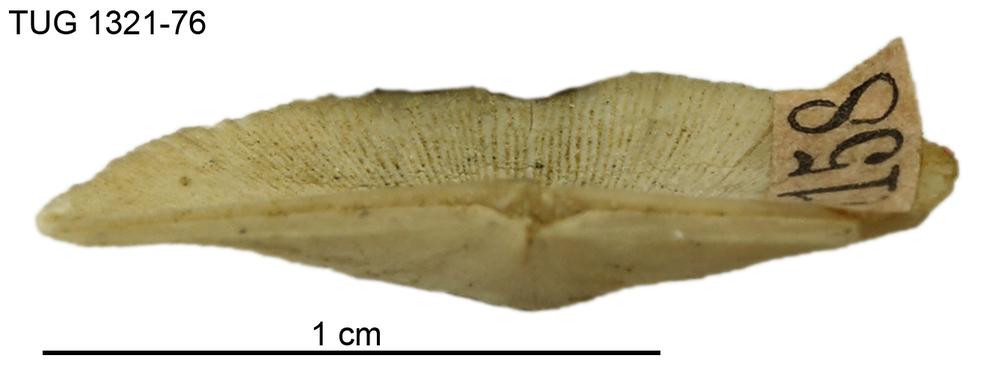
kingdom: Animalia
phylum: Brachiopoda
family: Sowerbyellidae
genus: Sowerbyella
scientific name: Sowerbyella eha
